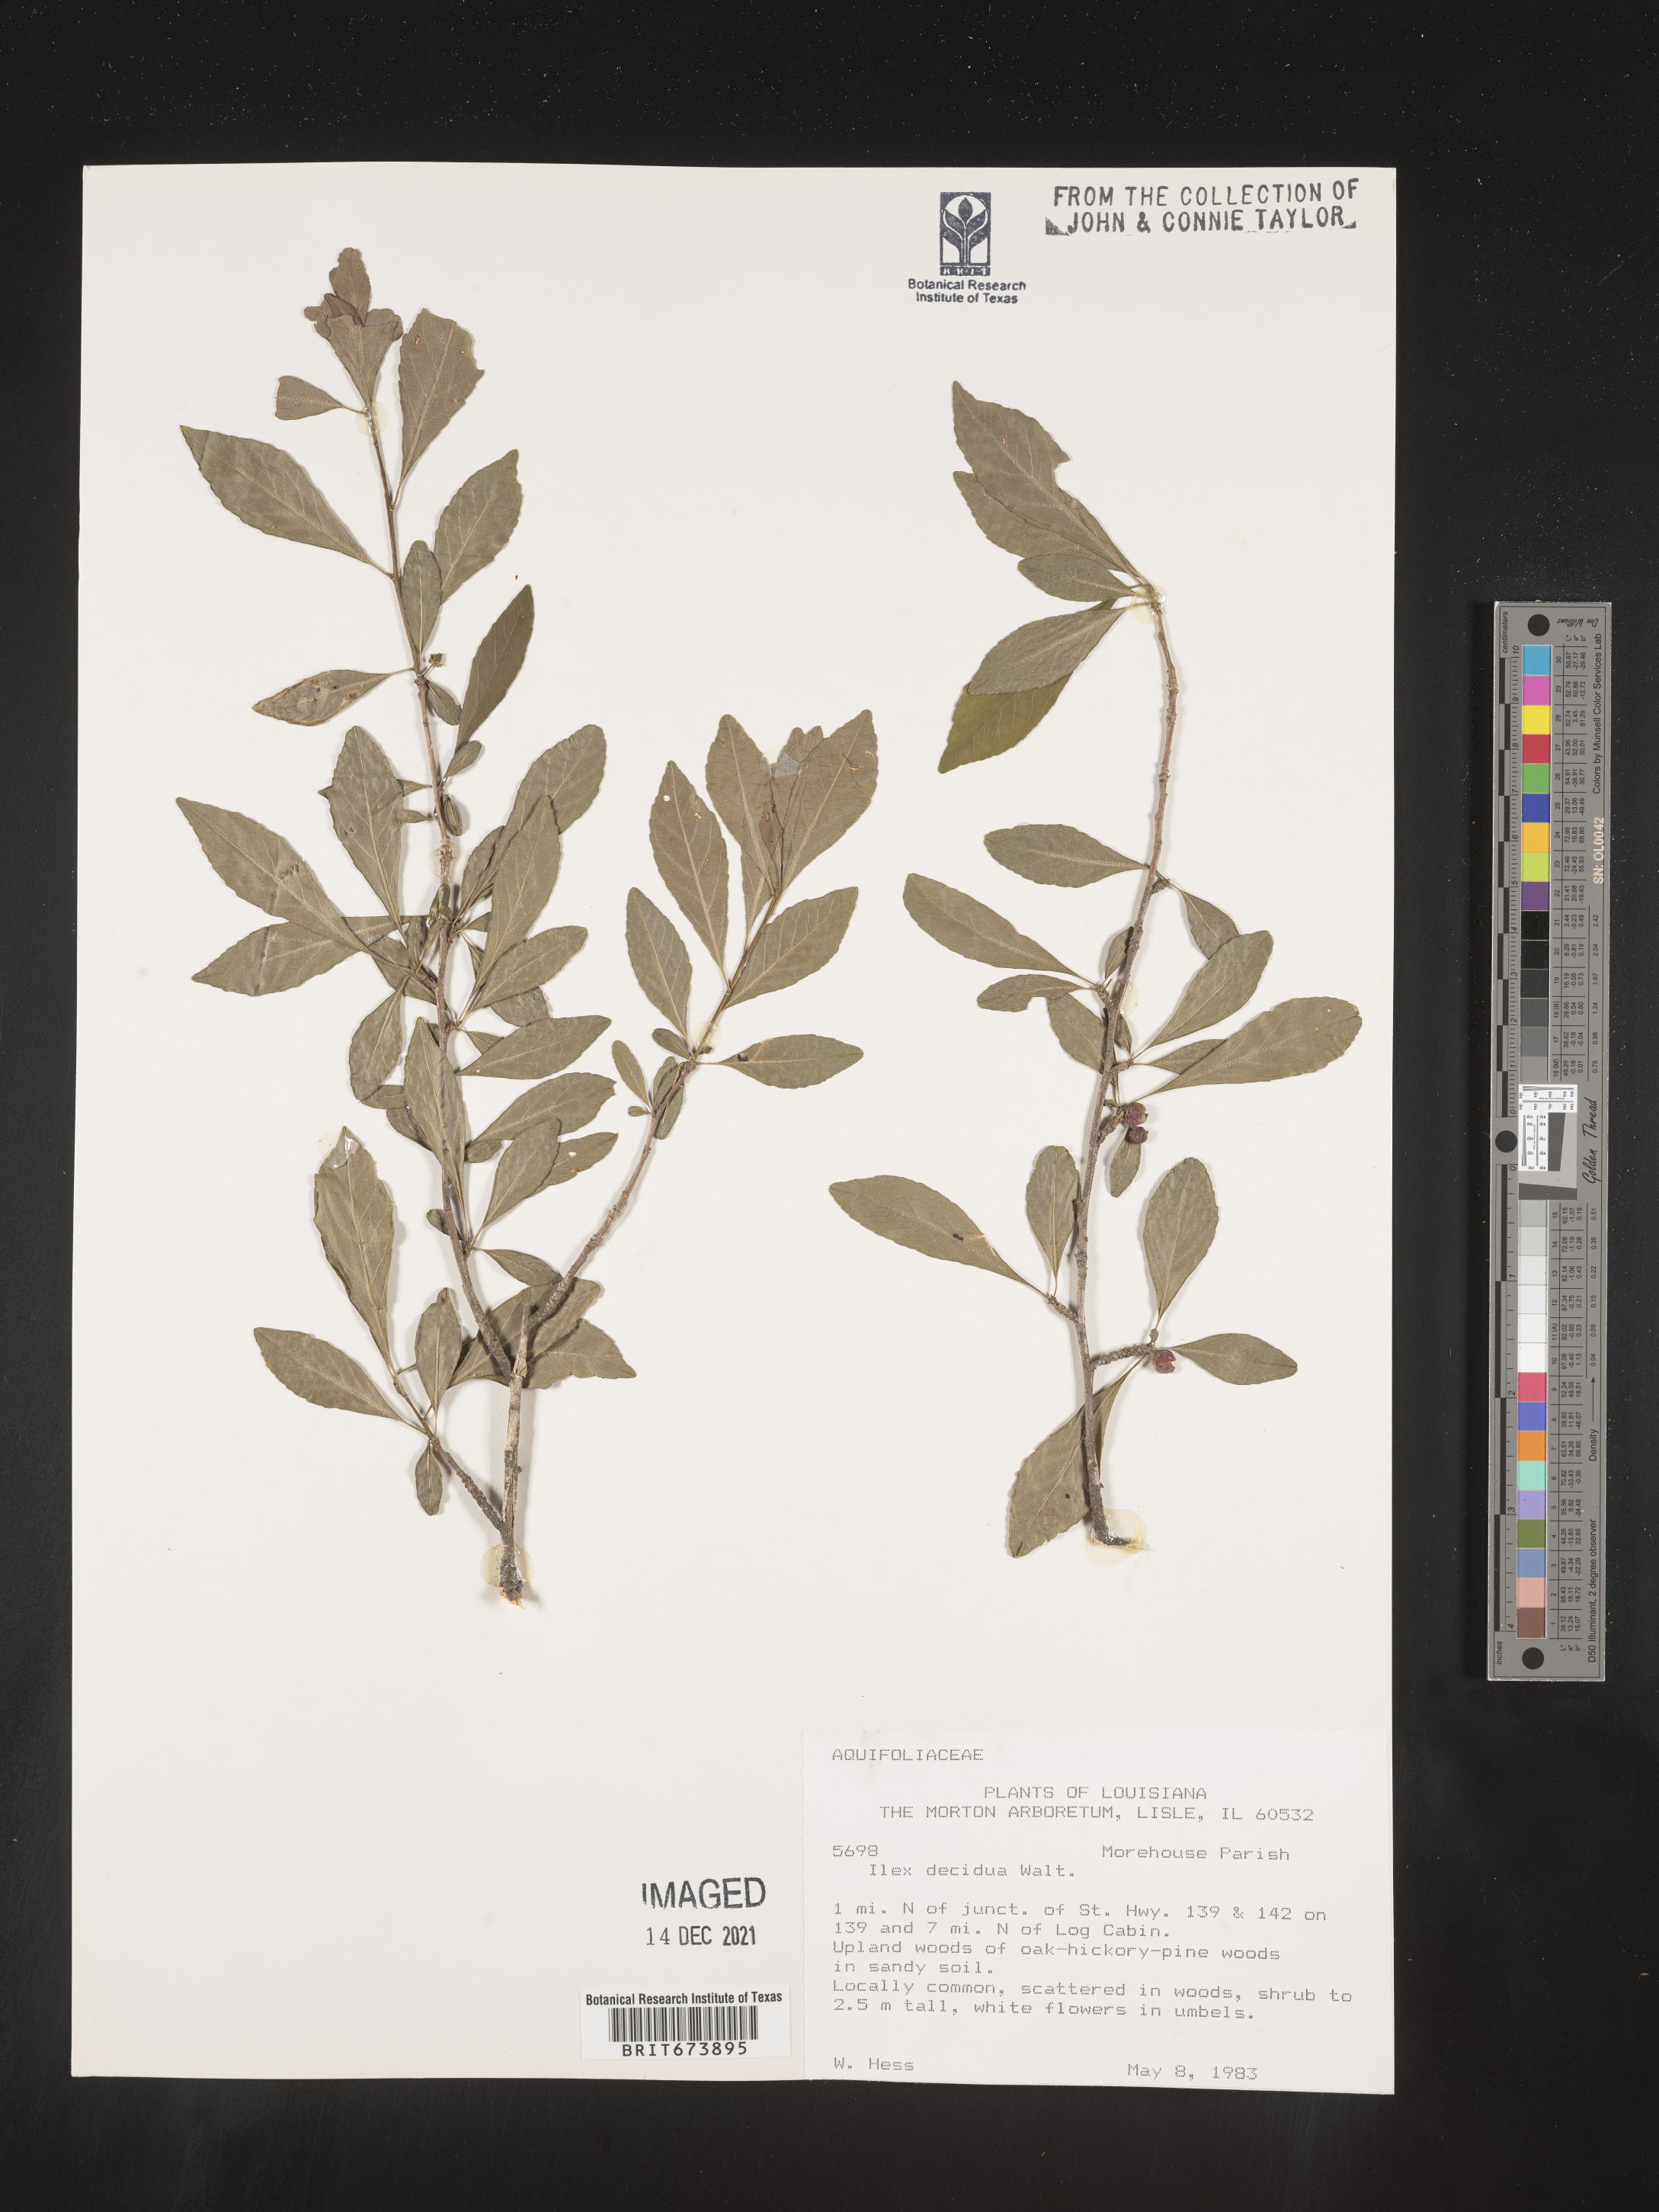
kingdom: Plantae
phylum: Tracheophyta
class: Magnoliopsida
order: Aquifoliales
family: Aquifoliaceae
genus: Ilex
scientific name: Ilex decidua
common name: Possum-haw
